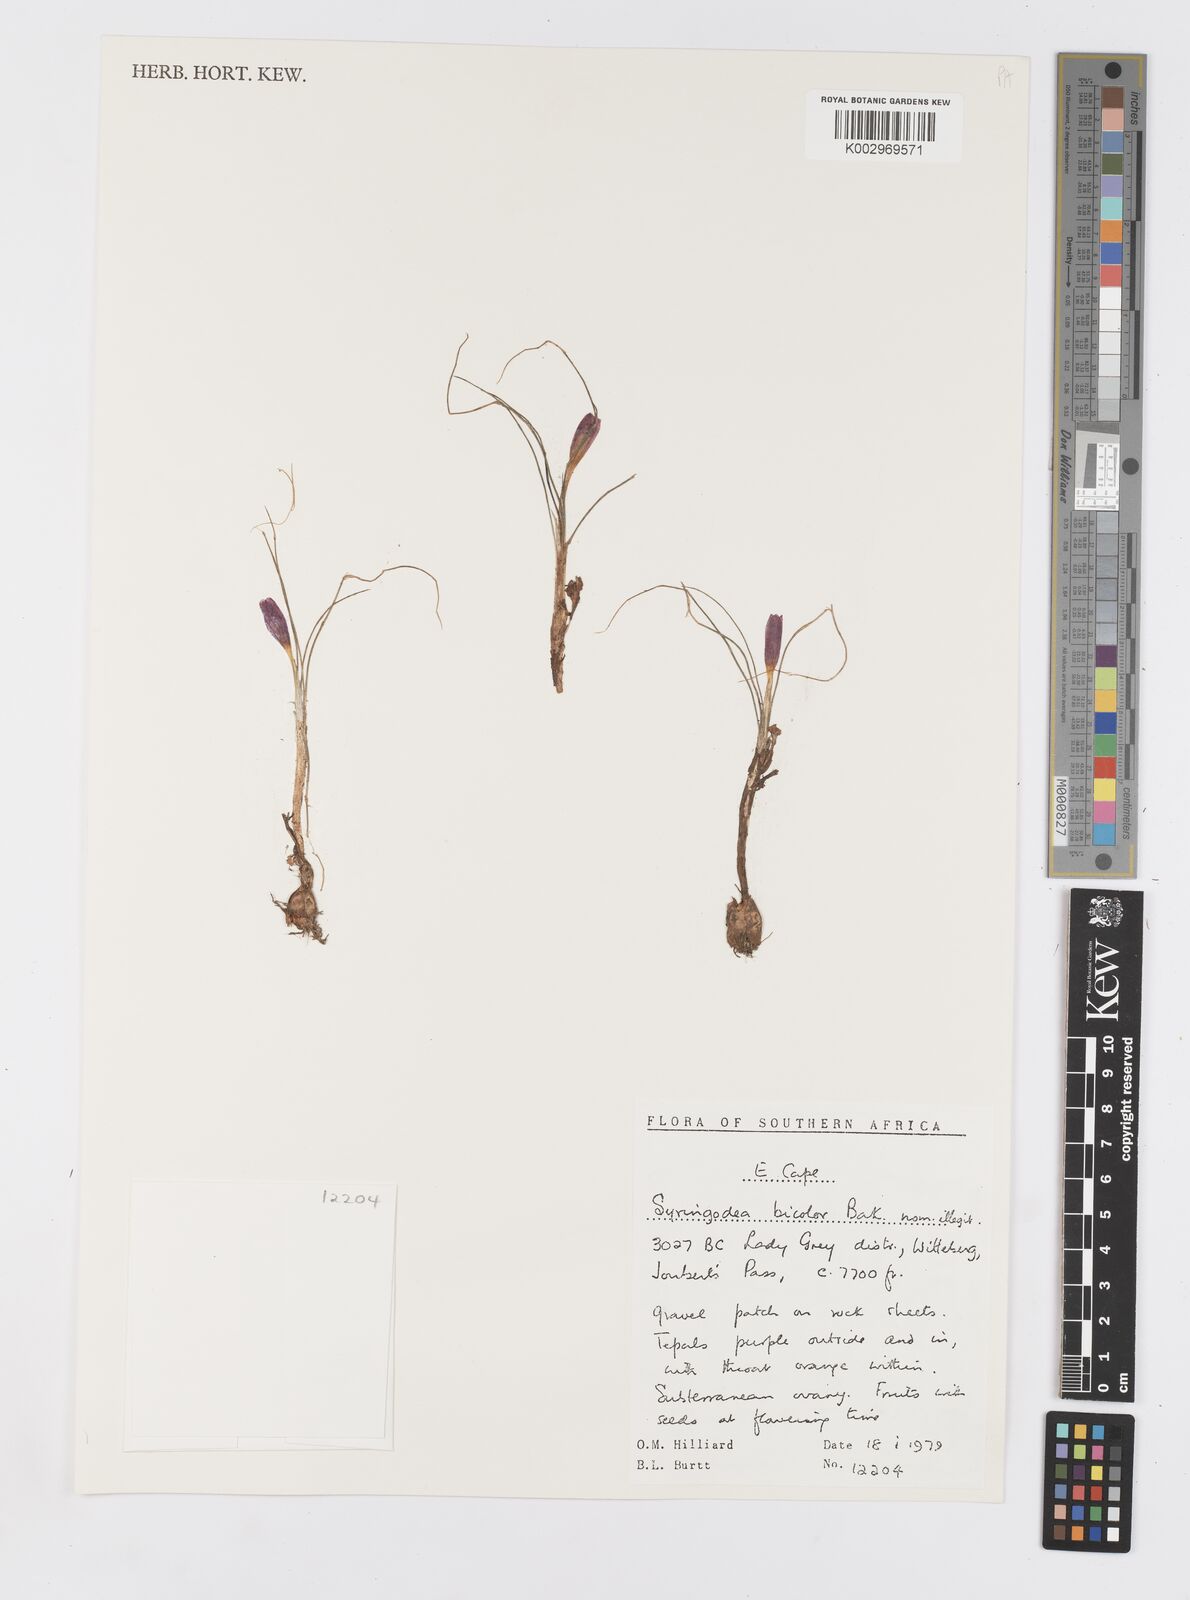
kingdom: Plantae
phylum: Tracheophyta
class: Liliopsida
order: Asparagales
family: Iridaceae
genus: Syringodea
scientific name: Syringodea bifucata
